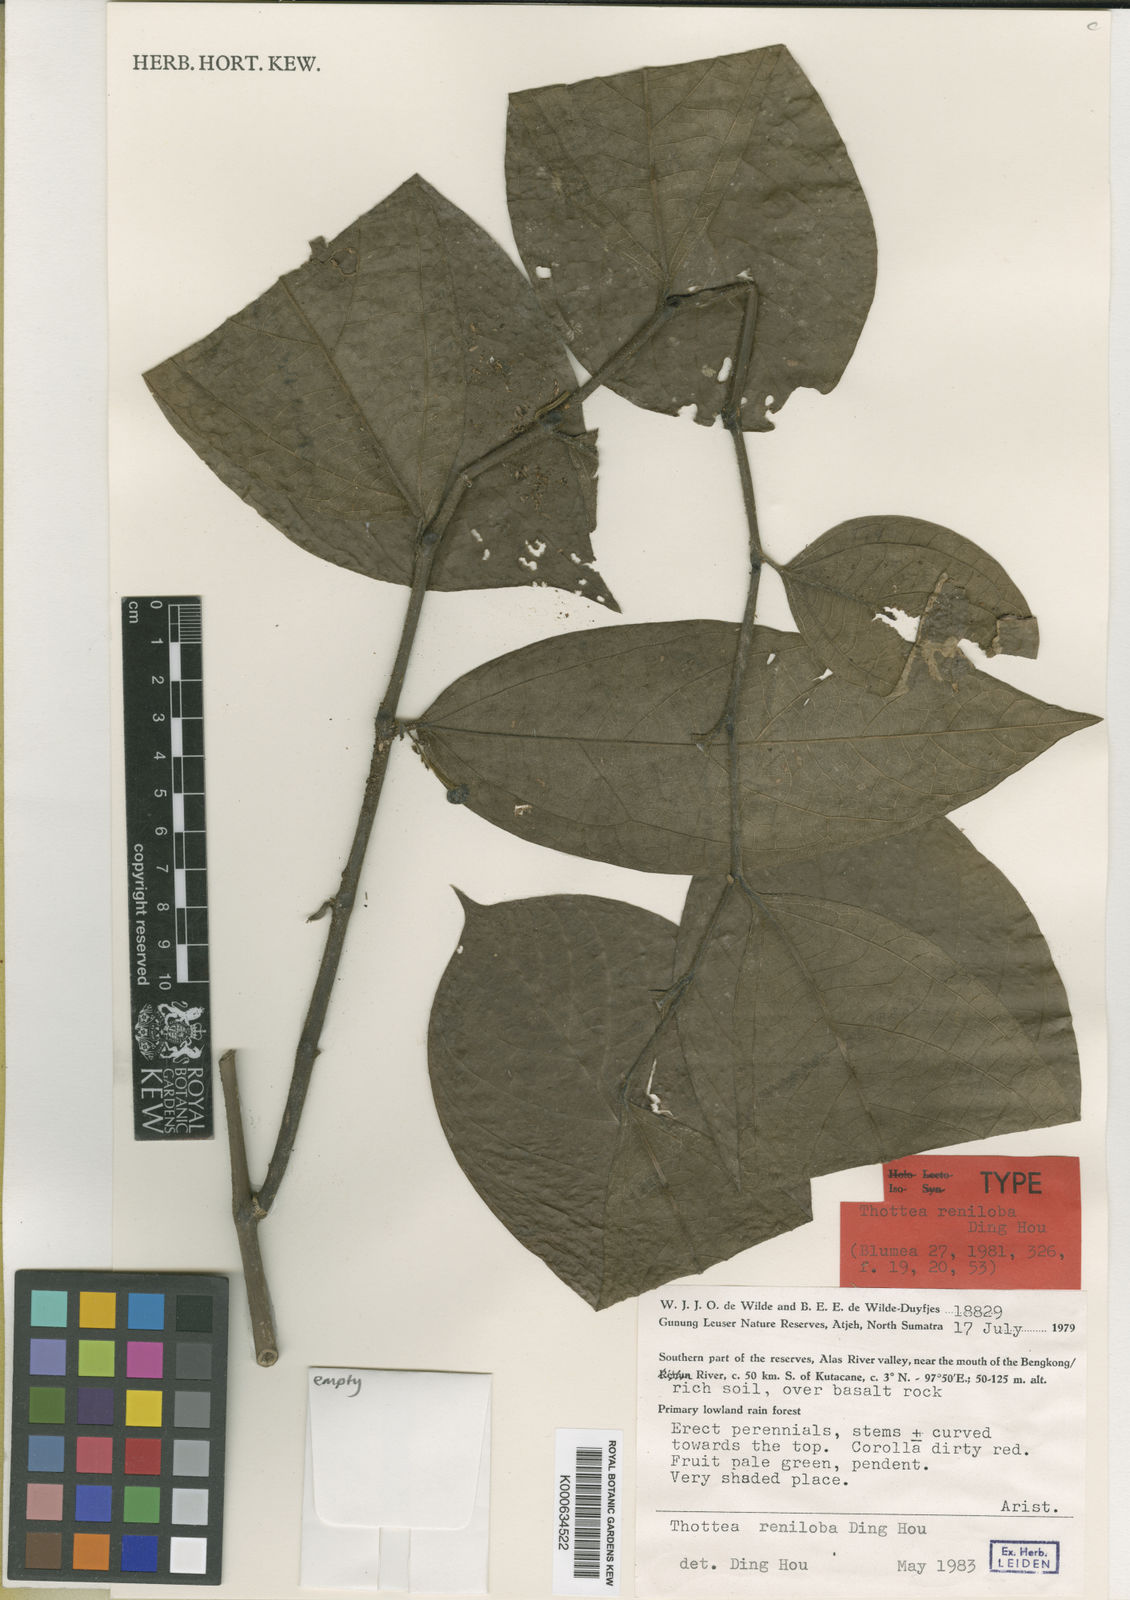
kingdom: Plantae
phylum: Tracheophyta
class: Magnoliopsida
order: Piperales
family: Aristolochiaceae
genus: Thottea
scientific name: Thottea reniloba
